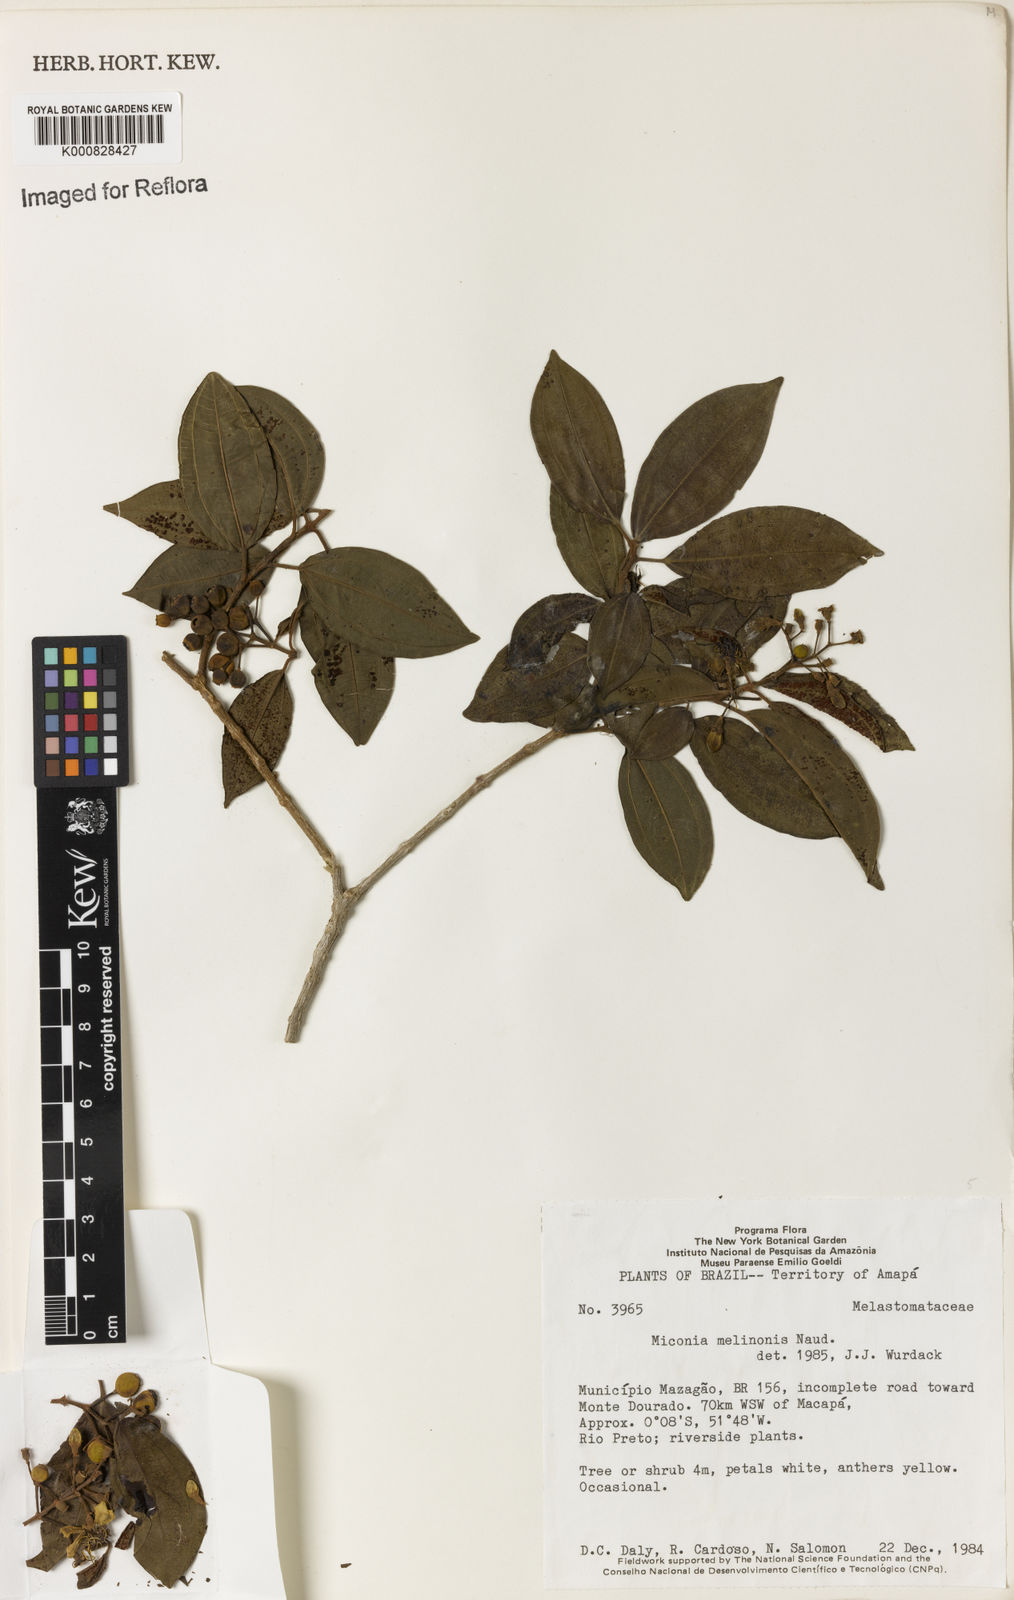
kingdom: Plantae
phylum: Tracheophyta
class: Magnoliopsida
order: Myrtales
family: Melastomataceae
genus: Miconia
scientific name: Miconia melinonis
